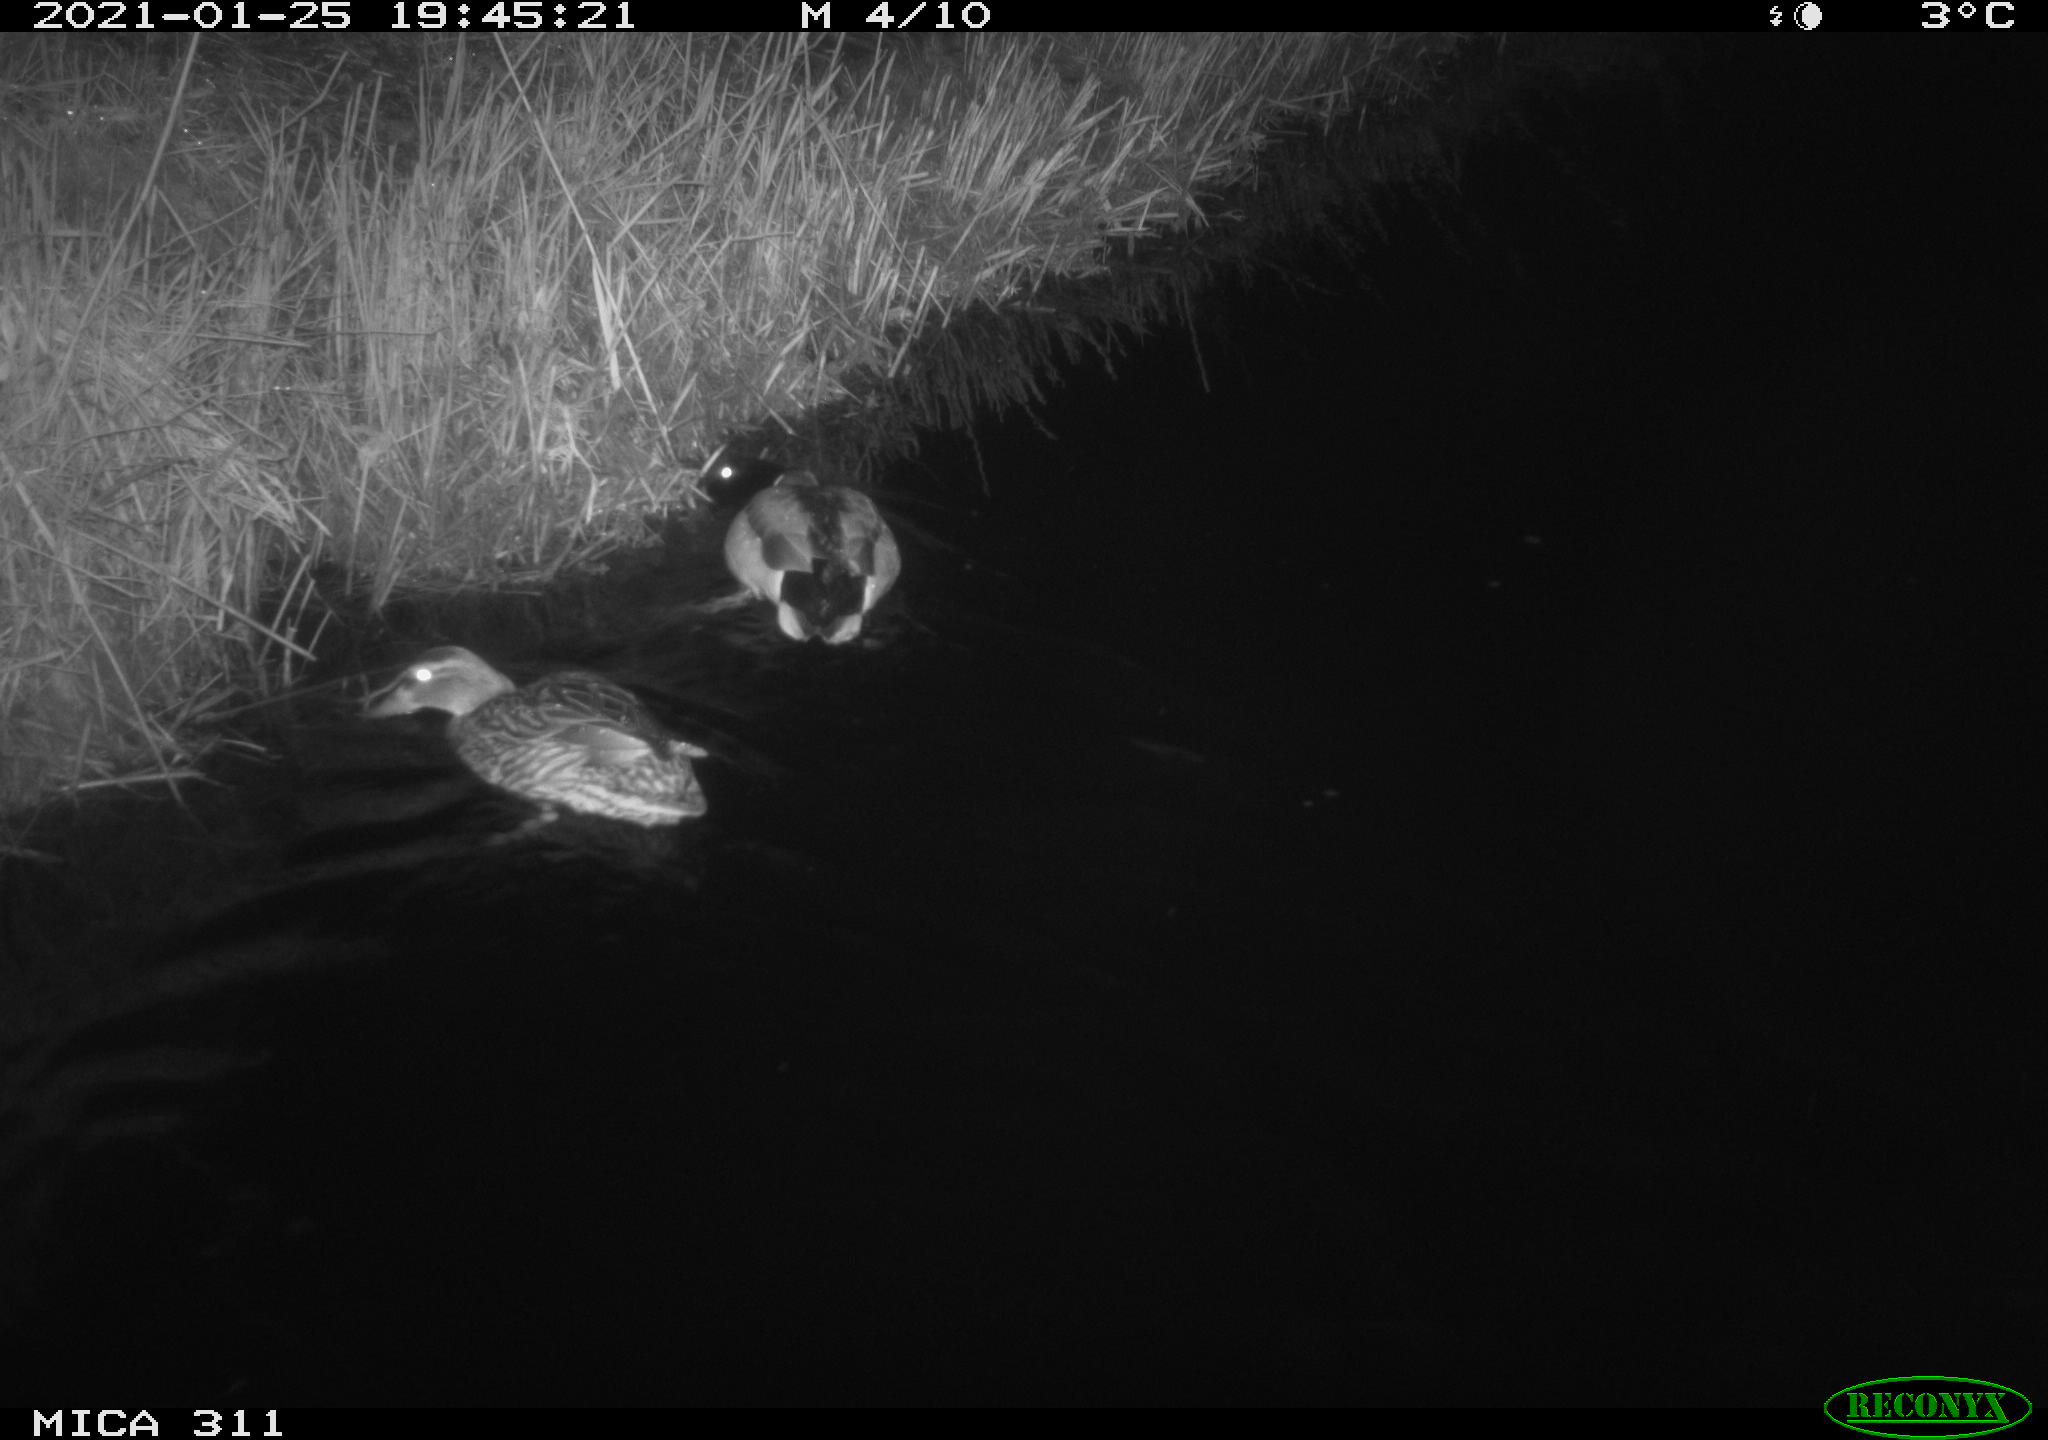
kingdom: Animalia
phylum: Chordata
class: Aves
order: Anseriformes
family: Anatidae
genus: Anas
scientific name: Anas
